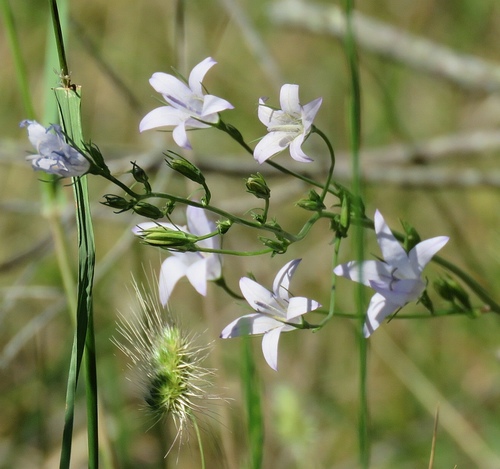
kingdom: Plantae
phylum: Tracheophyta
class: Magnoliopsida
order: Asterales
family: Campanulaceae
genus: Campanula
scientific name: Campanula rapunculus
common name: Rampion bellflower
